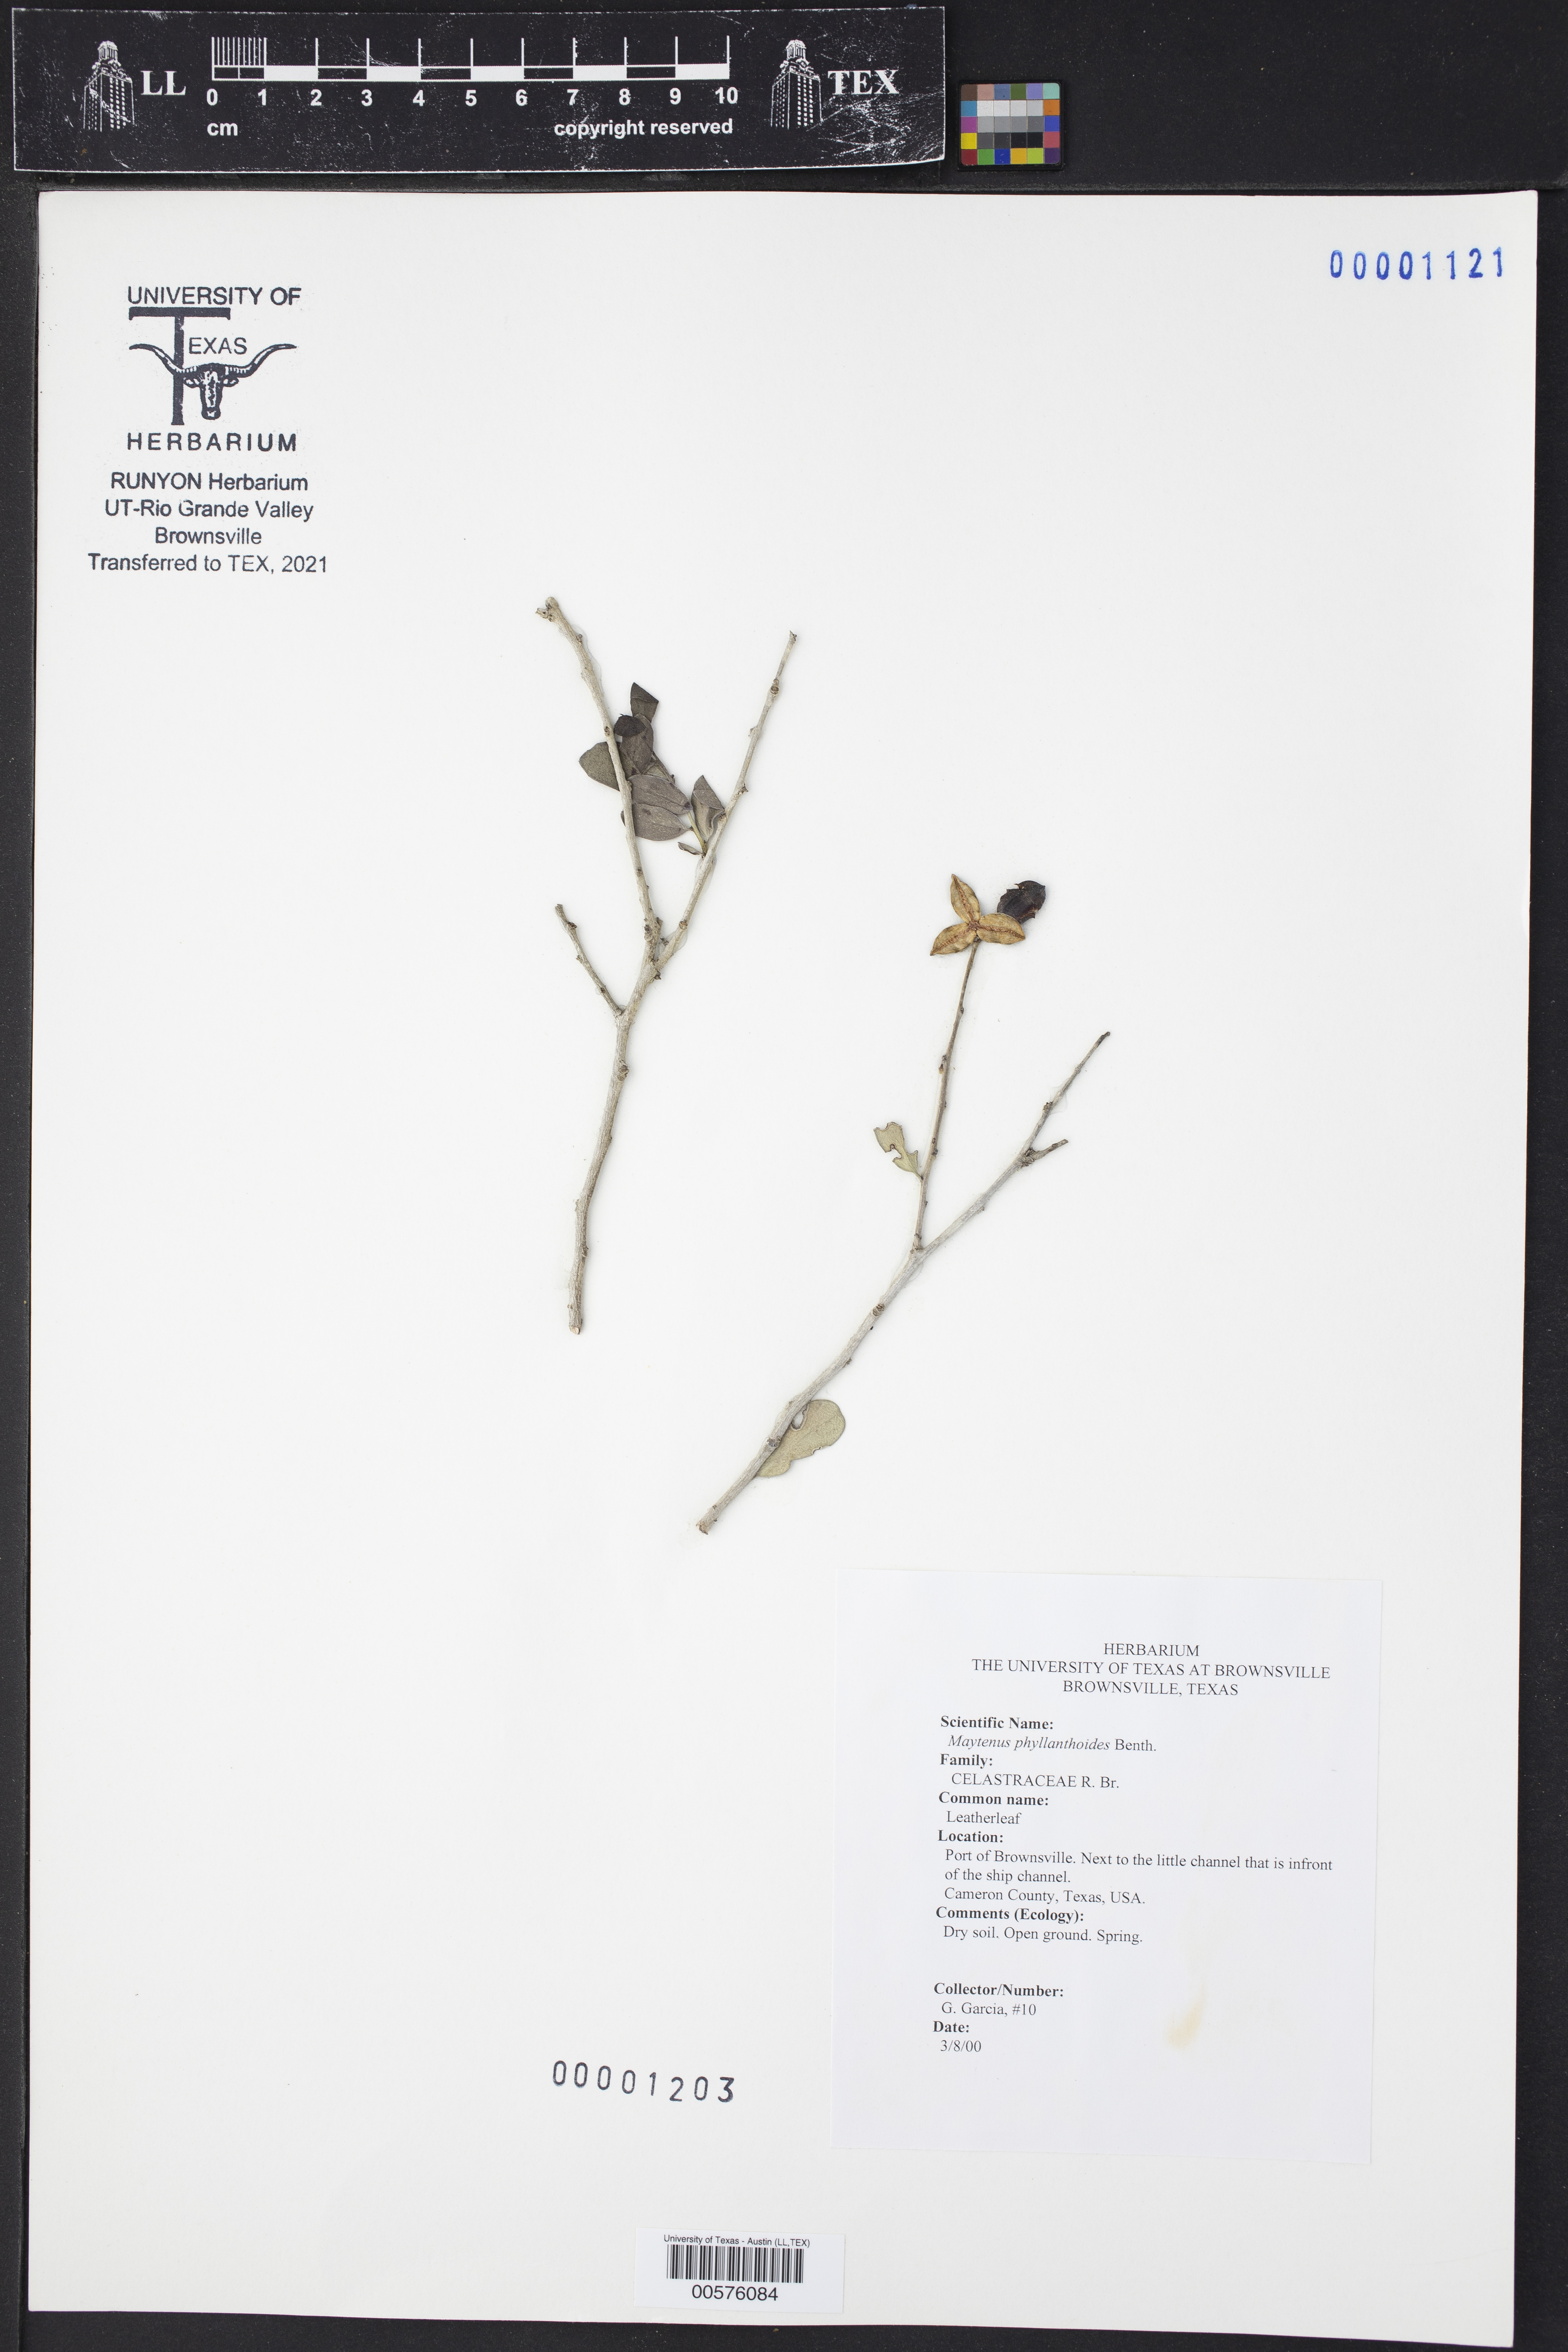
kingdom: Plantae
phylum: Tracheophyta
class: Magnoliopsida
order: Celastrales
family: Celastraceae
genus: Tricerma
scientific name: Tricerma phyllanthoides
